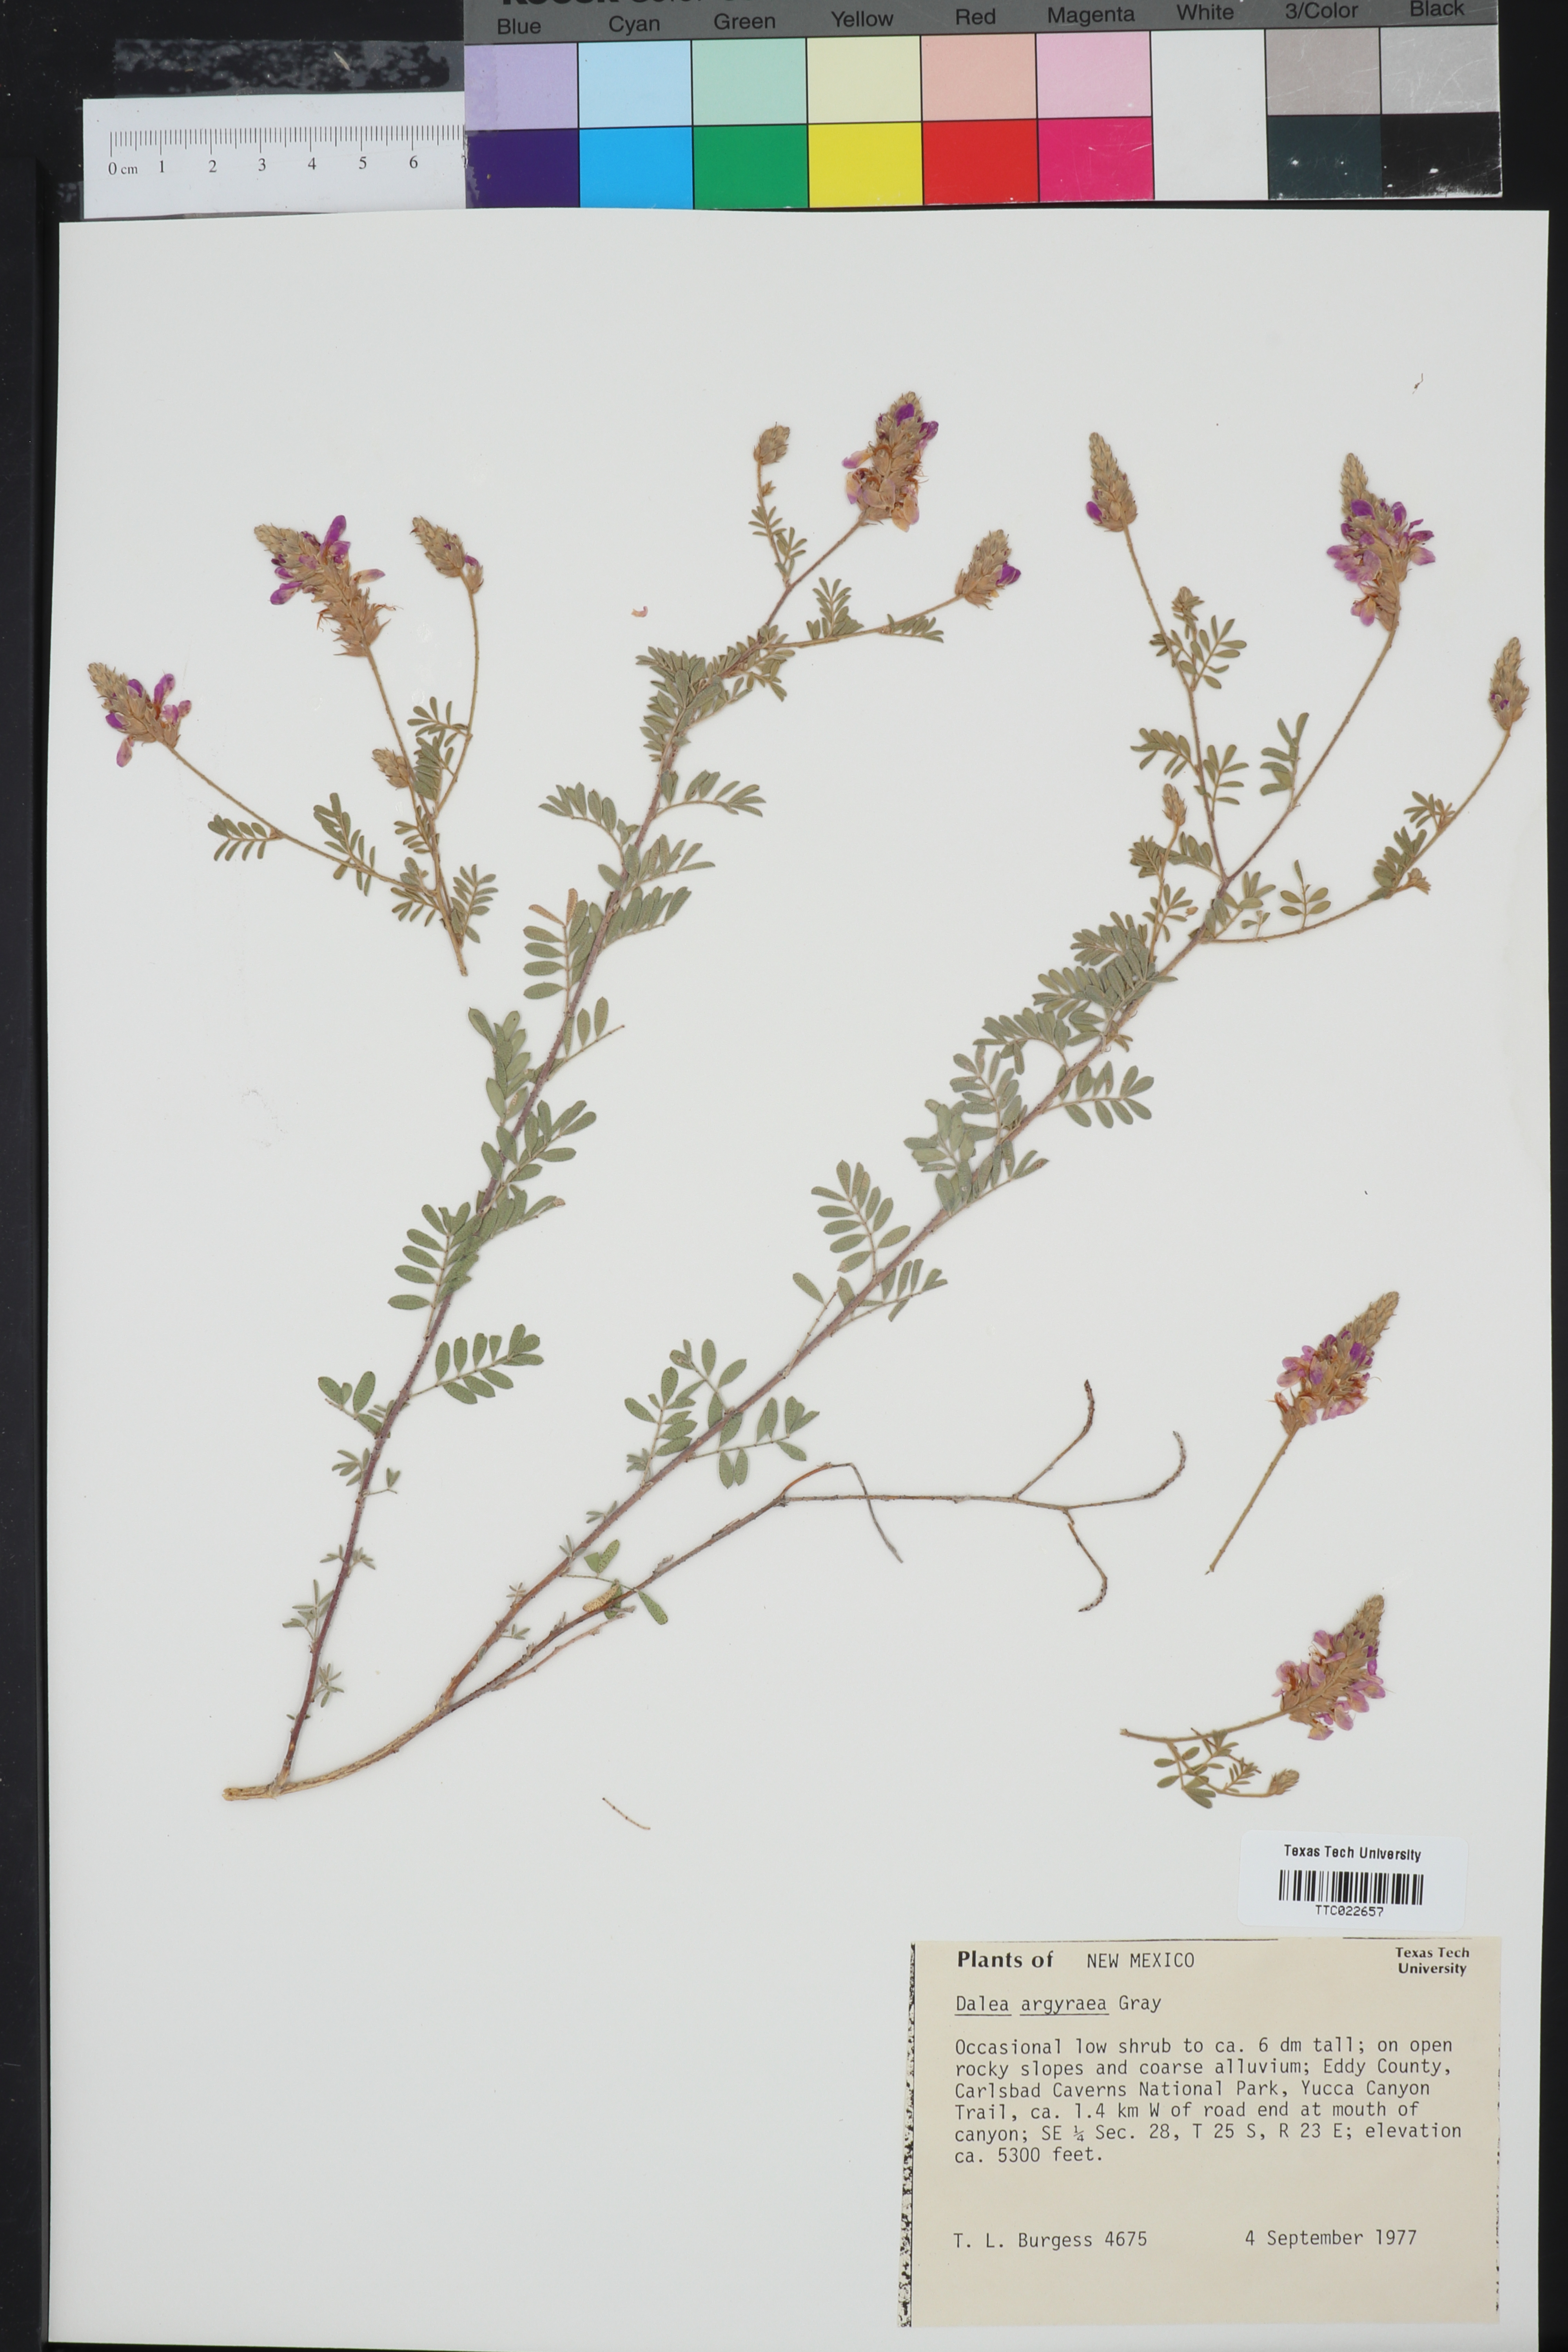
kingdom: Plantae
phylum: Tracheophyta
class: Magnoliopsida
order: Fabales
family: Fabaceae
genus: Dalea
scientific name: Dalea bicolor
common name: Silver prairie-clover
